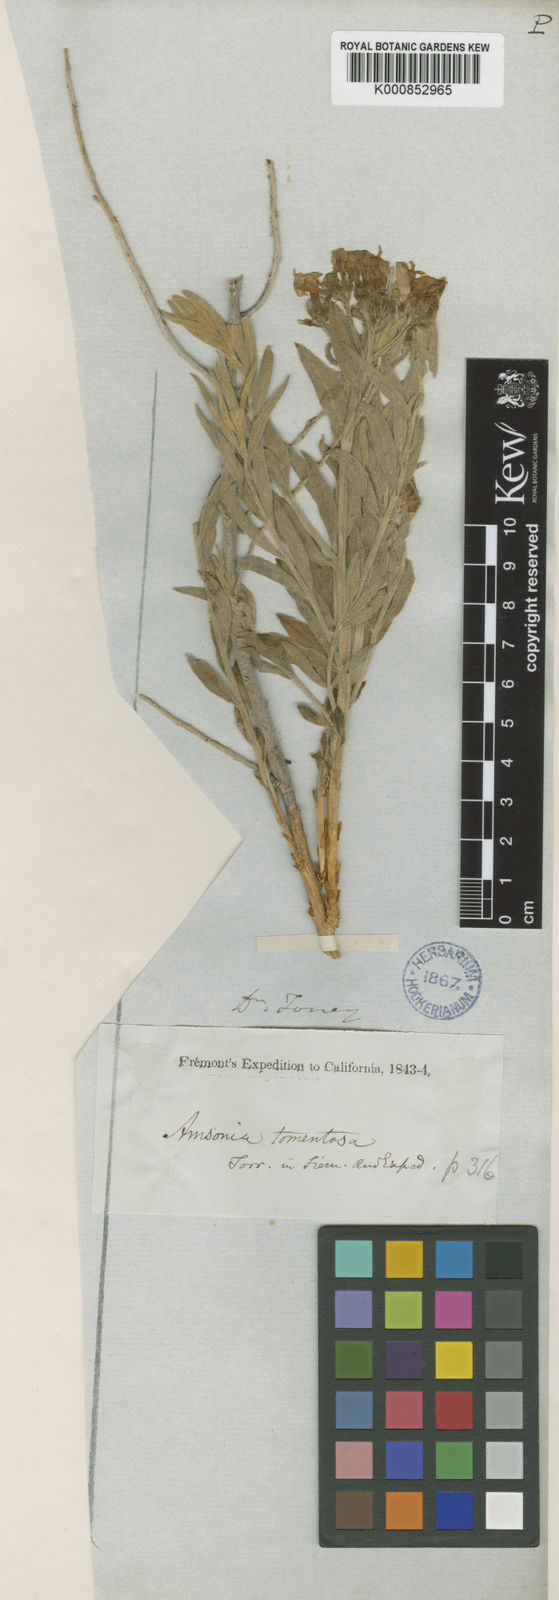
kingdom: Plantae
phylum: Tracheophyta
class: Magnoliopsida
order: Gentianales
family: Apocynaceae
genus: Amsonia
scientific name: Amsonia
